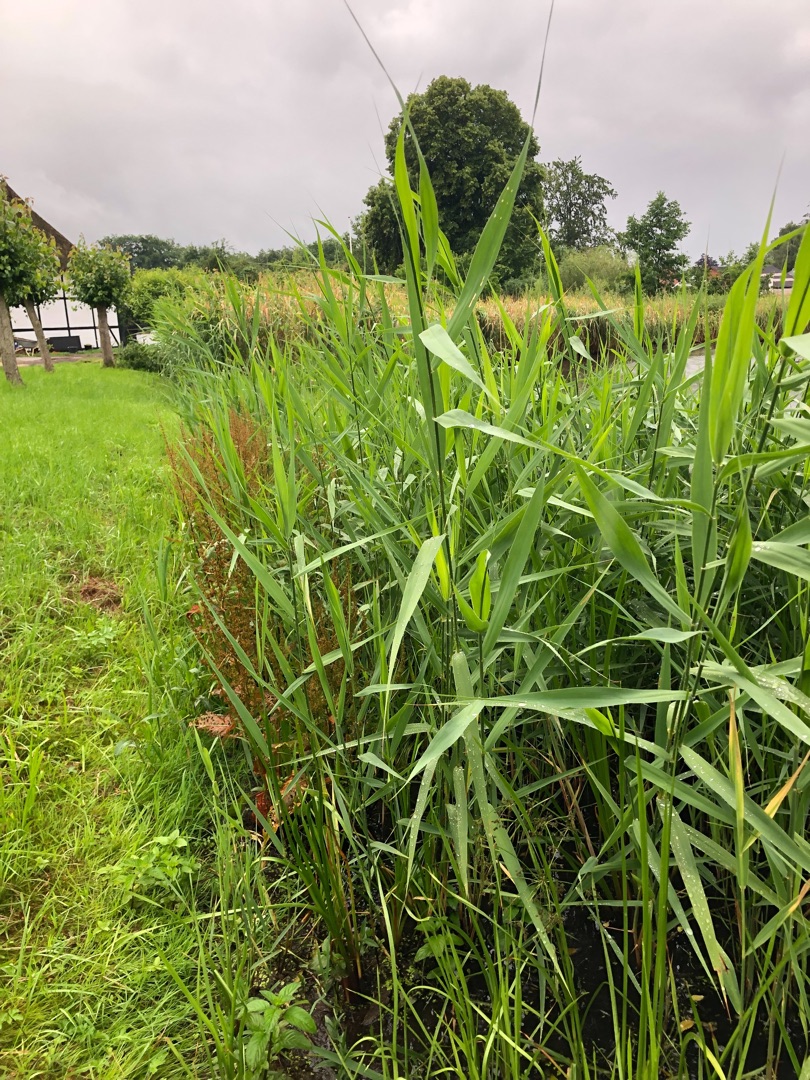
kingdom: Plantae
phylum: Tracheophyta
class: Liliopsida
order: Poales
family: Poaceae
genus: Phragmites
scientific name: Phragmites australis
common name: Tagrør
